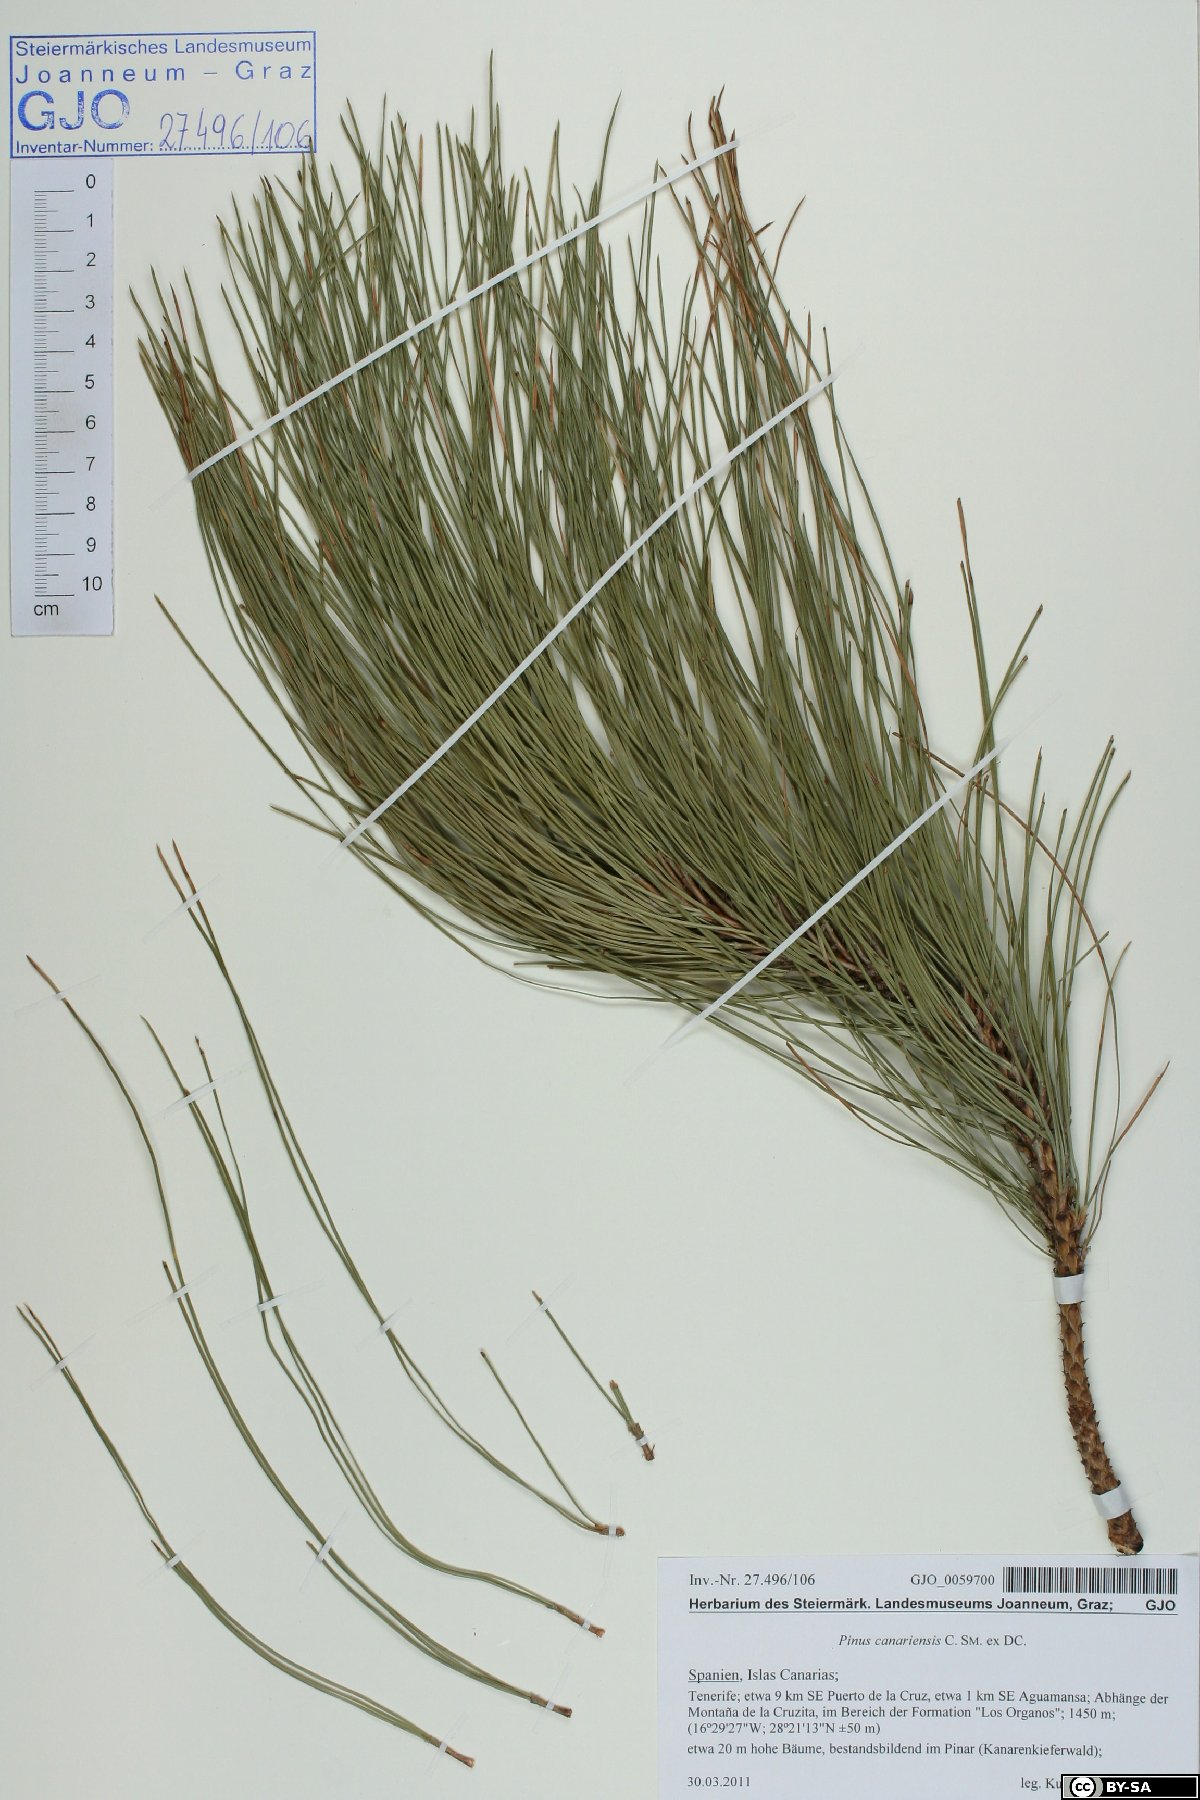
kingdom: Plantae
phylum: Tracheophyta
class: Pinopsida
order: Pinales
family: Pinaceae
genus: Pinus
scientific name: Pinus canariensis
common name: Canary islands pine
